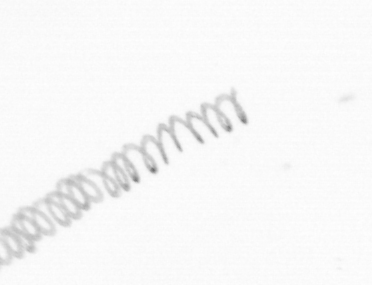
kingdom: Chromista
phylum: Ochrophyta
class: Bacillariophyceae
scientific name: Bacillariophyceae
